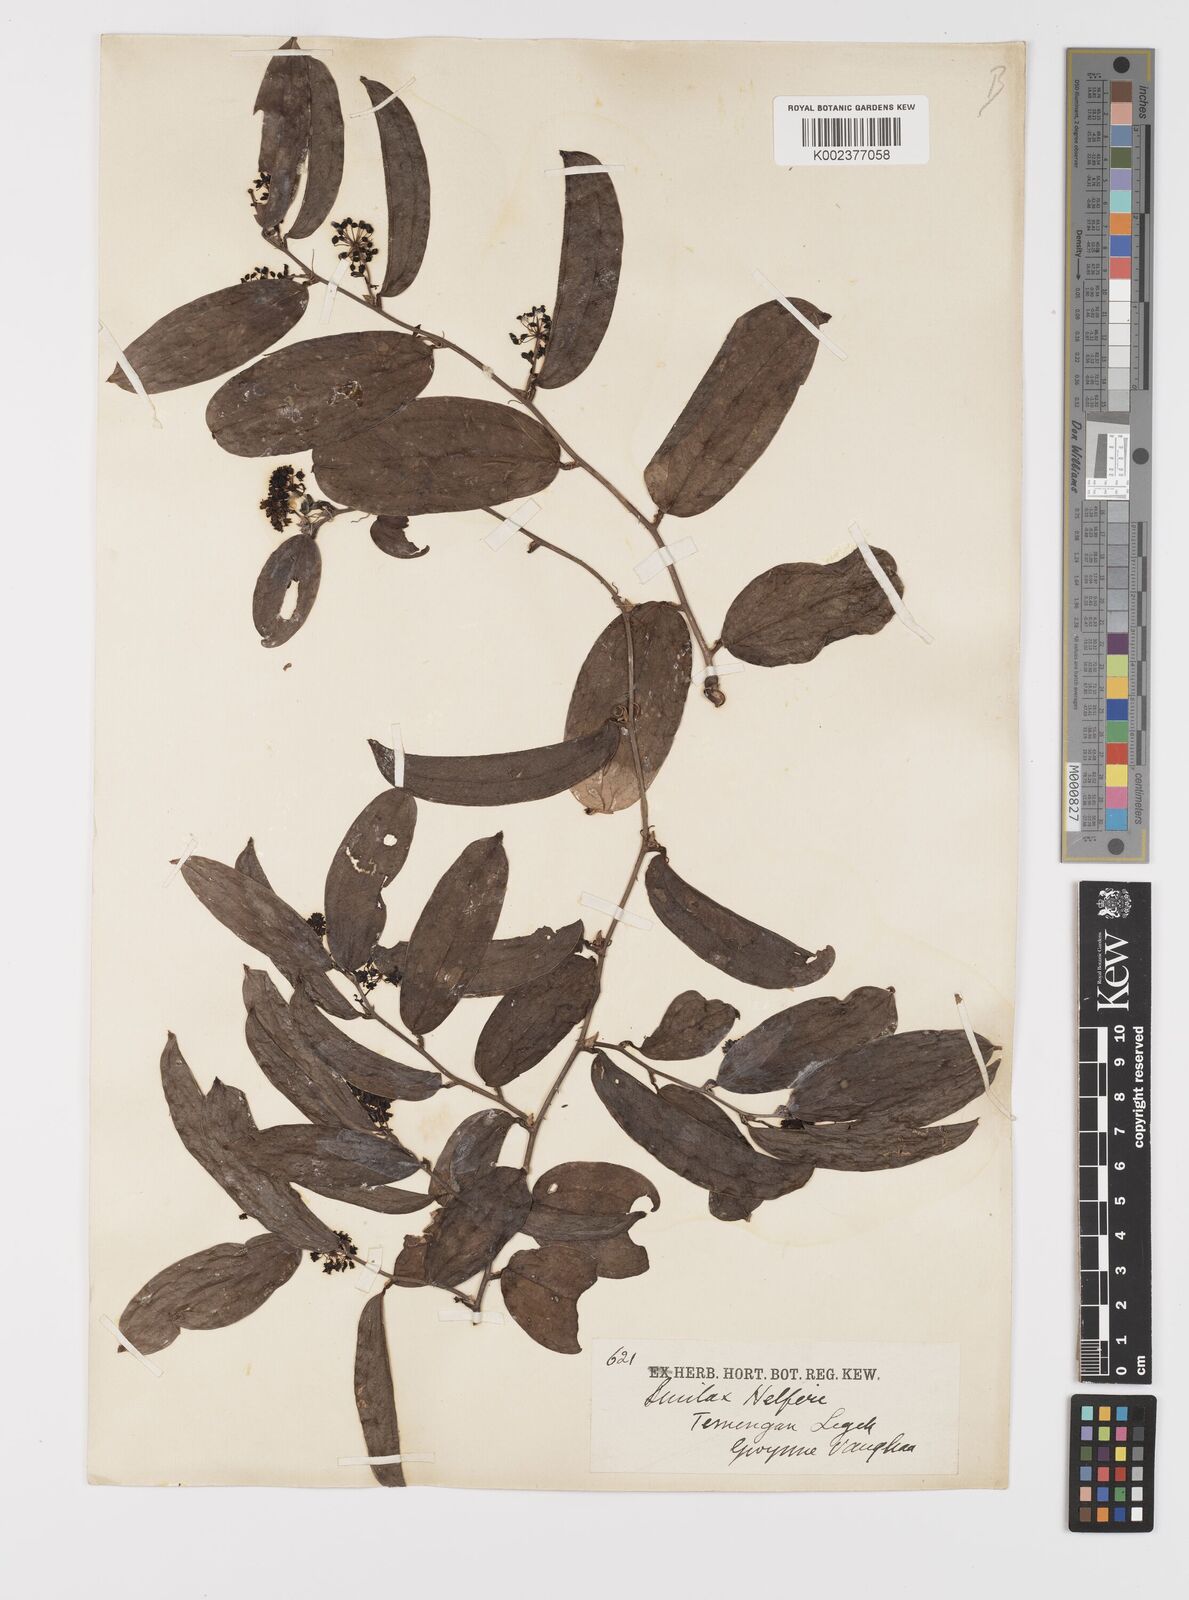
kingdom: Plantae
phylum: Tracheophyta
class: Liliopsida
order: Liliales
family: Smilacaceae
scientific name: Smilacaceae
